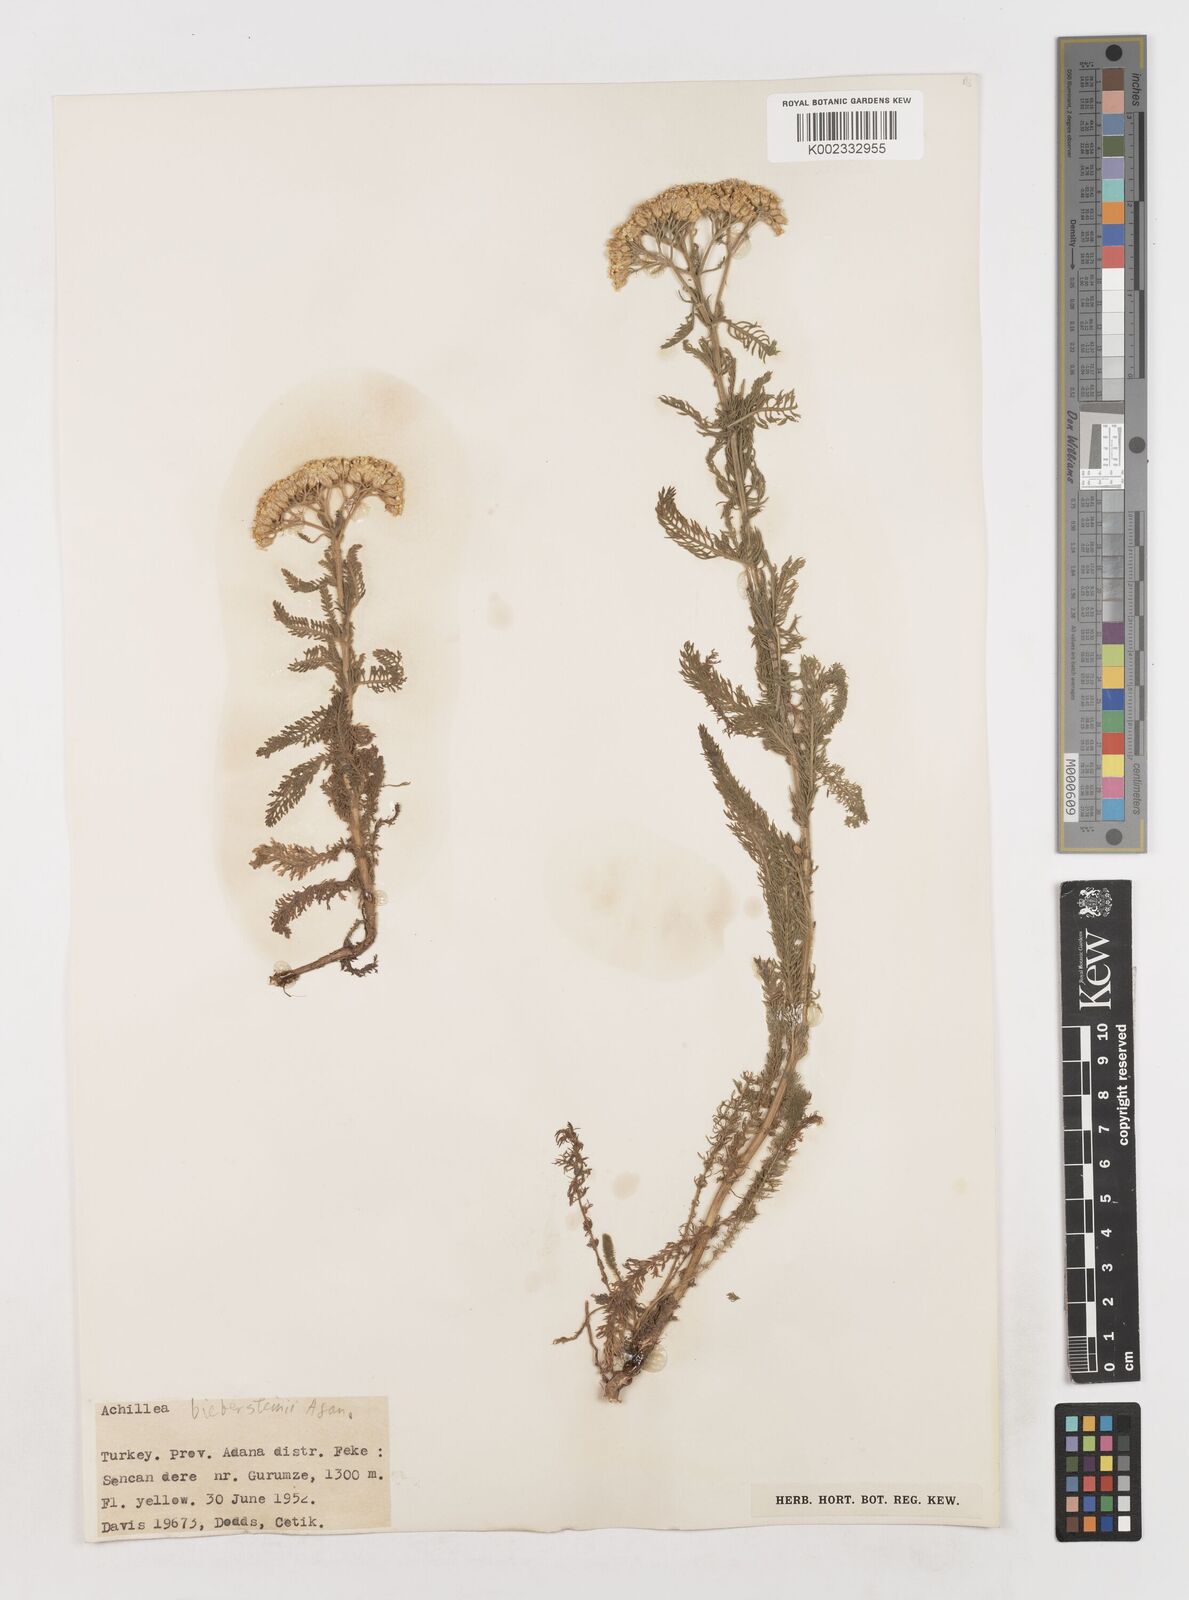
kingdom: Plantae
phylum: Tracheophyta
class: Magnoliopsida
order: Asterales
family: Asteraceae
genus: Achillea
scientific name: Achillea arabica
